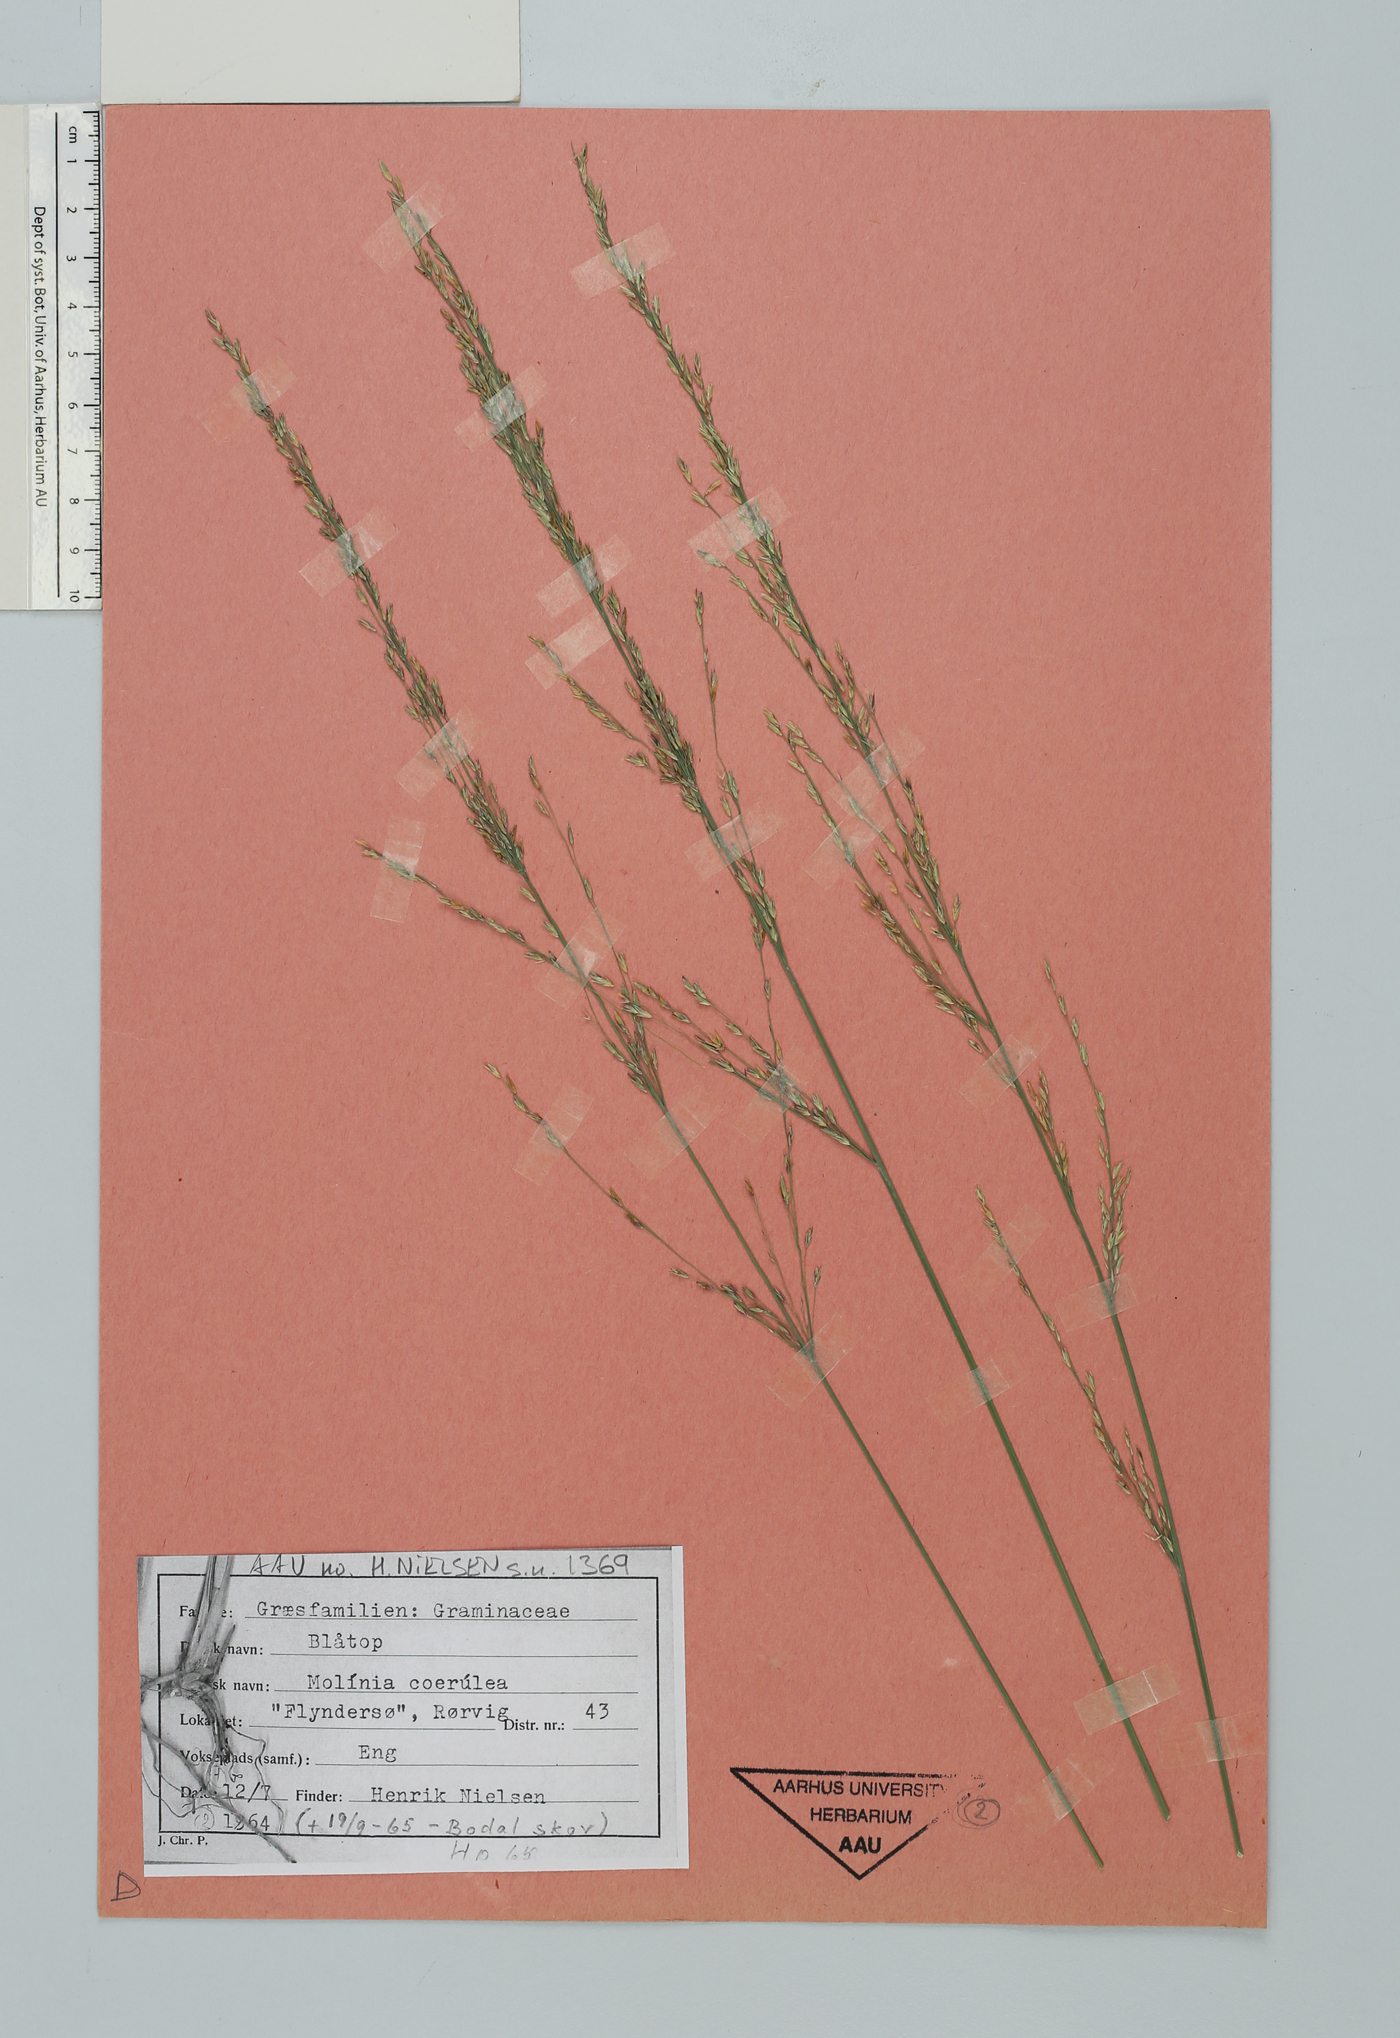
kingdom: Plantae
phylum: Tracheophyta
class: Liliopsida
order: Poales
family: Poaceae
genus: Molinia
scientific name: Molinia caerulea
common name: Purple moor-grass
